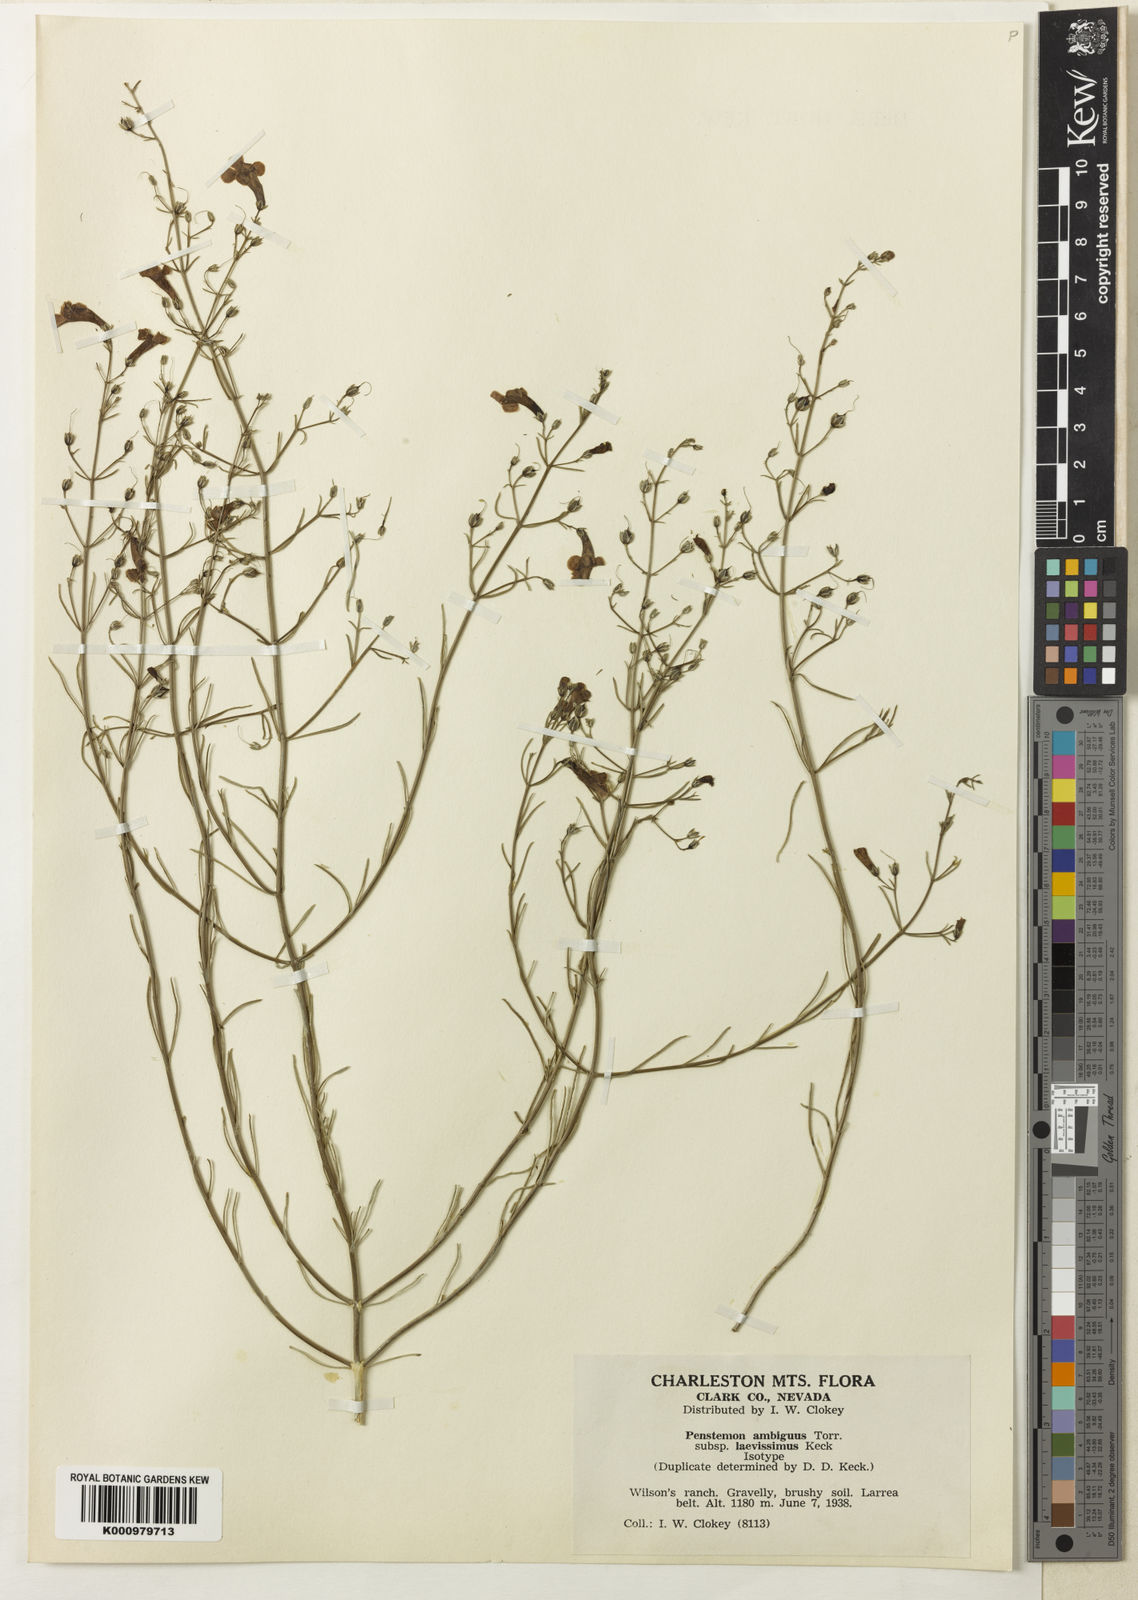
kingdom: Plantae
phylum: Tracheophyta
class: Magnoliopsida
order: Lamiales
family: Plantaginaceae
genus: Penstemon
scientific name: Penstemon ambiguus
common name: Bush penstemon
